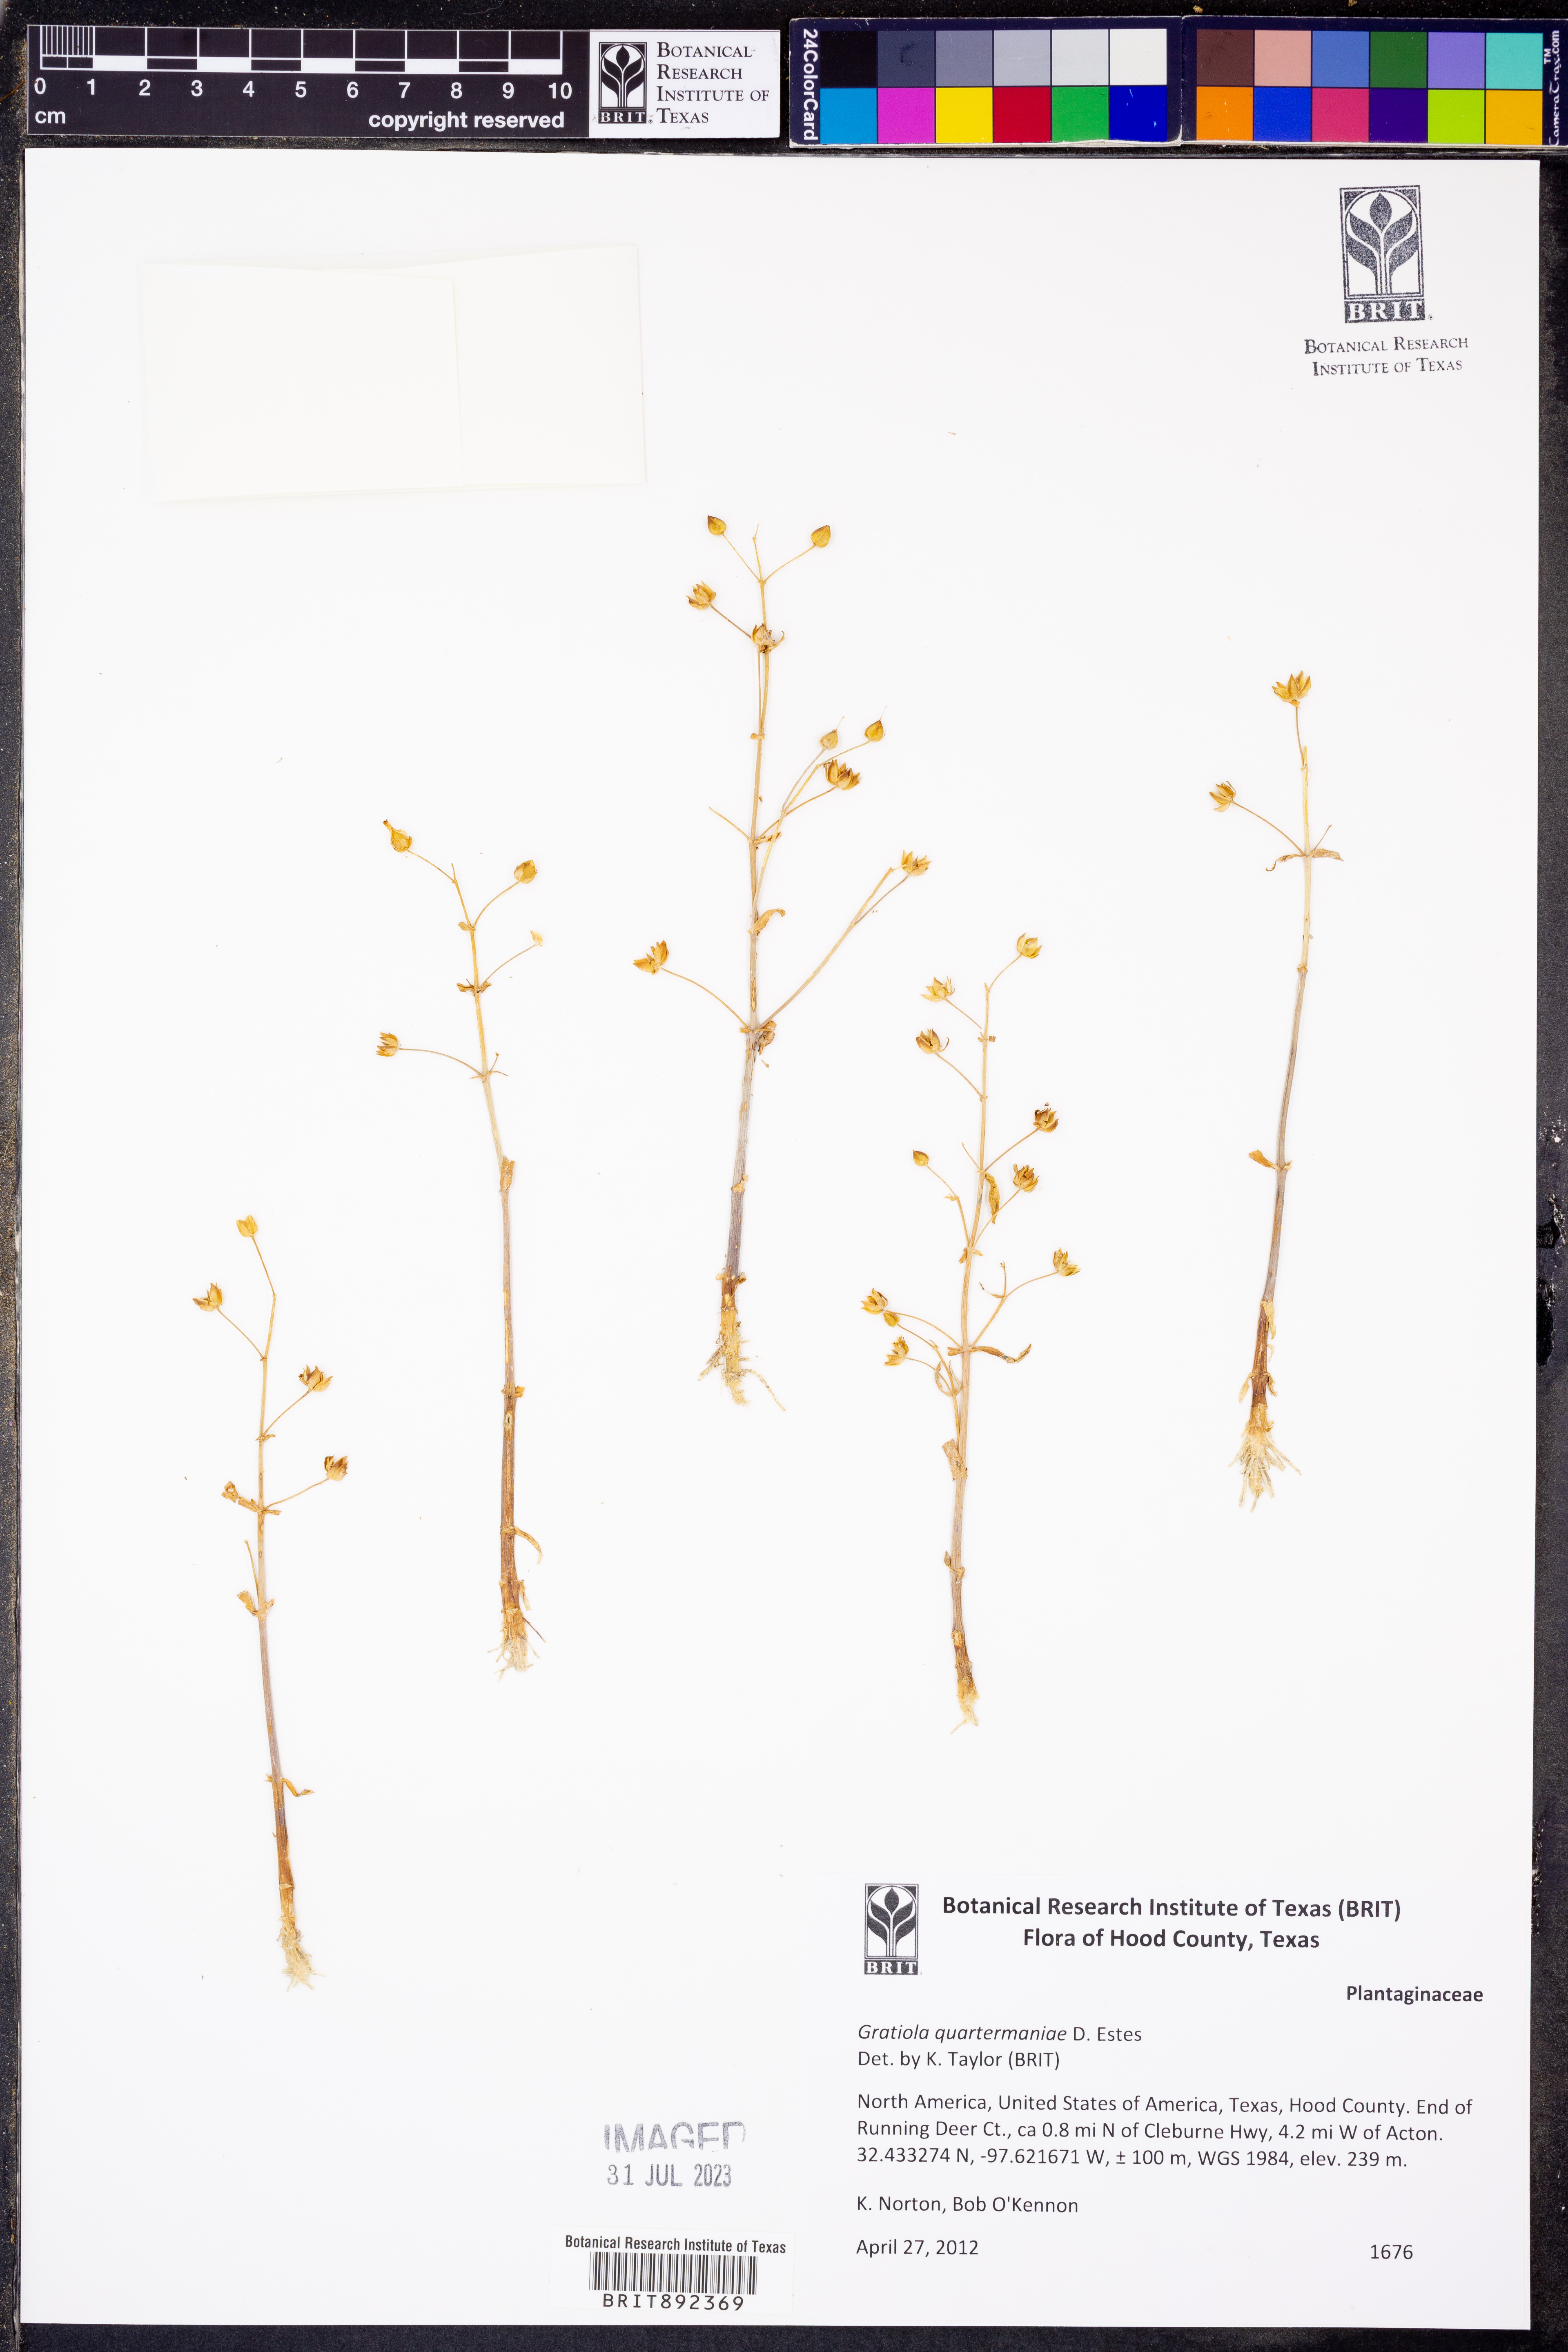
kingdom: Plantae
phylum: Tracheophyta
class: Magnoliopsida
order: Lamiales
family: Plantaginaceae
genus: Gratiola
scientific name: Gratiola quartermaniae
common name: Quarterman's hedge-hyssop
